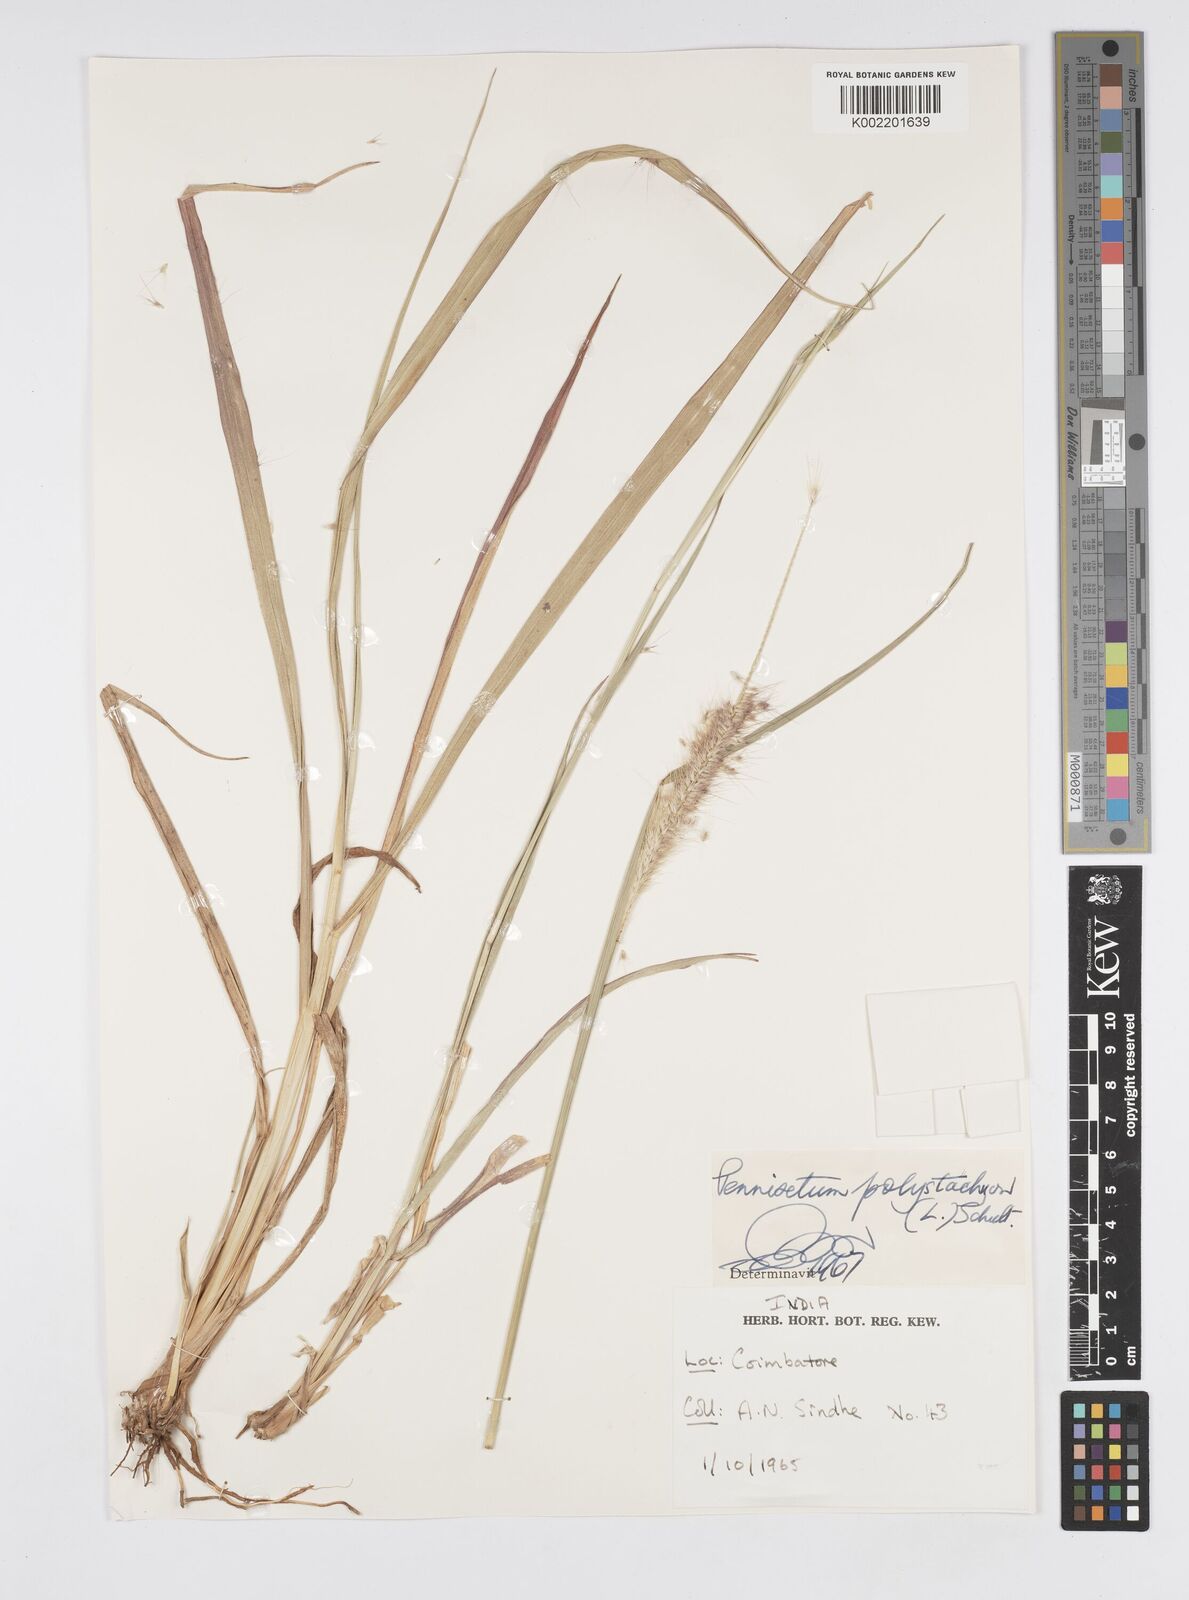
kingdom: Plantae
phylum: Tracheophyta
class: Liliopsida
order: Poales
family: Poaceae
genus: Setaria
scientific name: Setaria parviflora
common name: Knotroot bristle-grass
